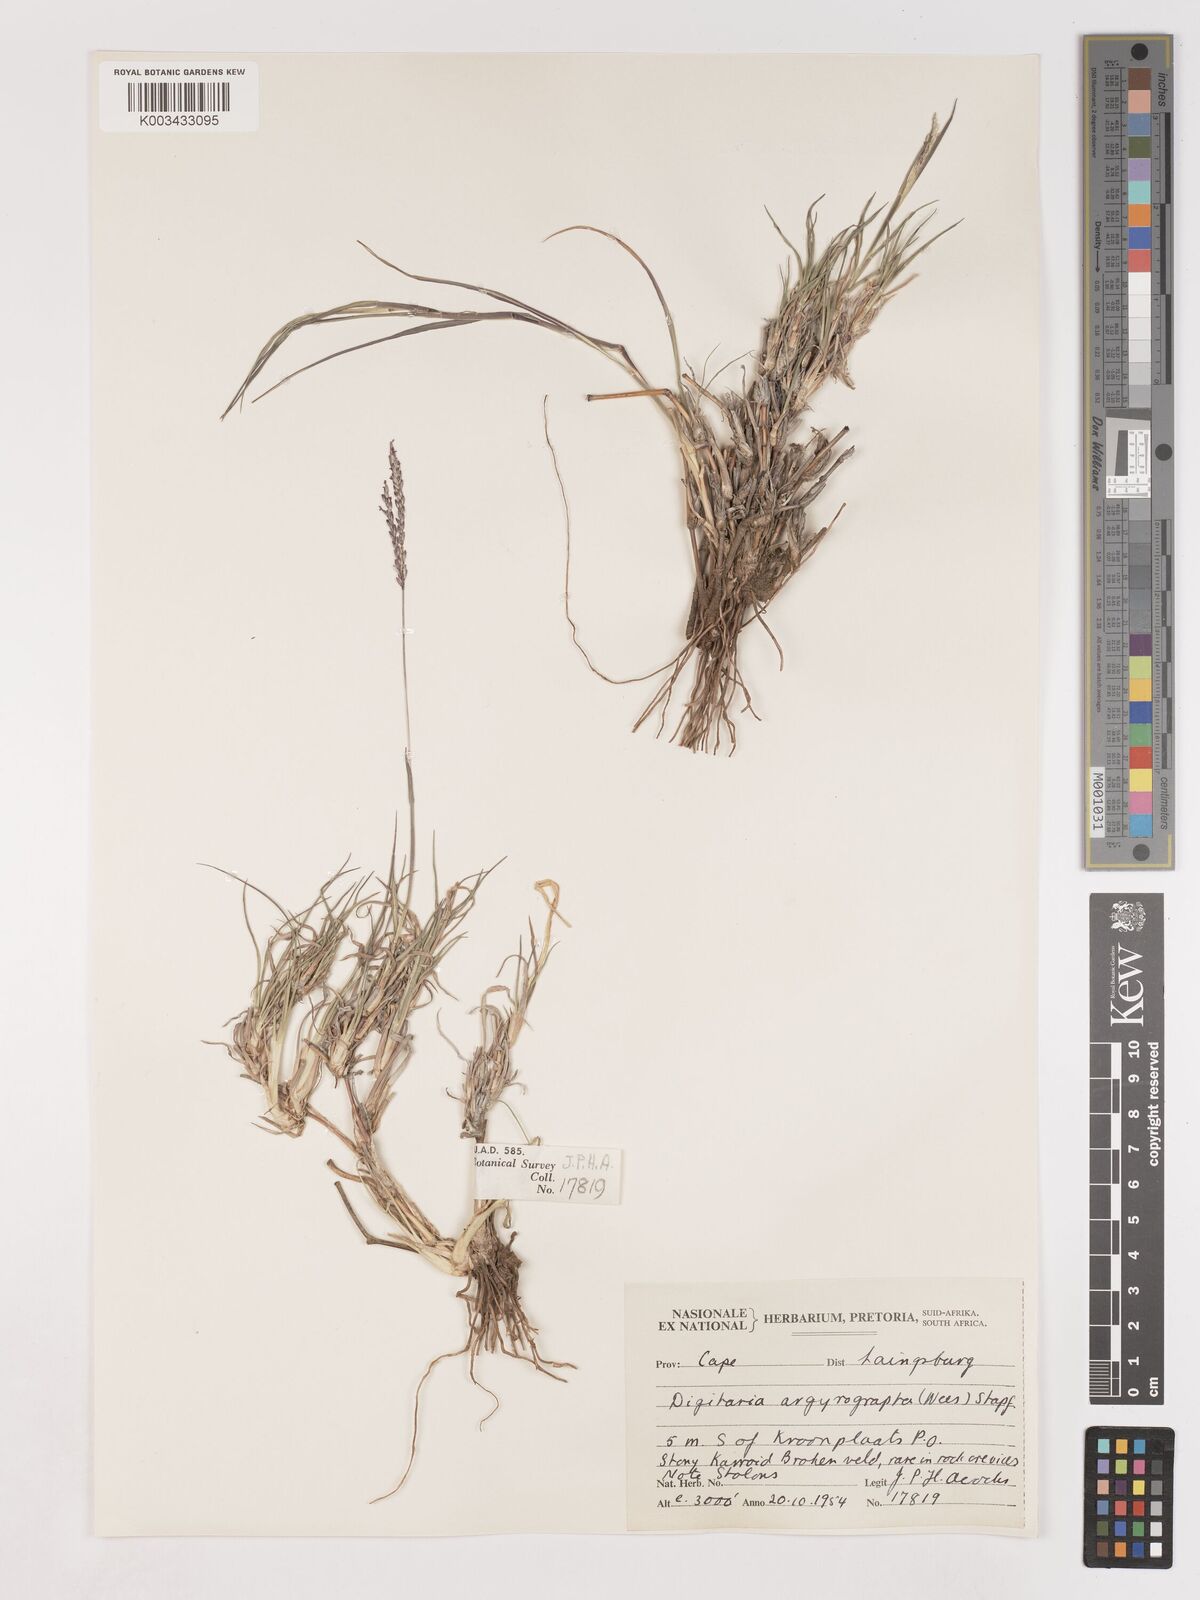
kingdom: Plantae
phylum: Tracheophyta
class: Liliopsida
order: Poales
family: Poaceae
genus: Digitaria
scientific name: Digitaria argyrograpta
